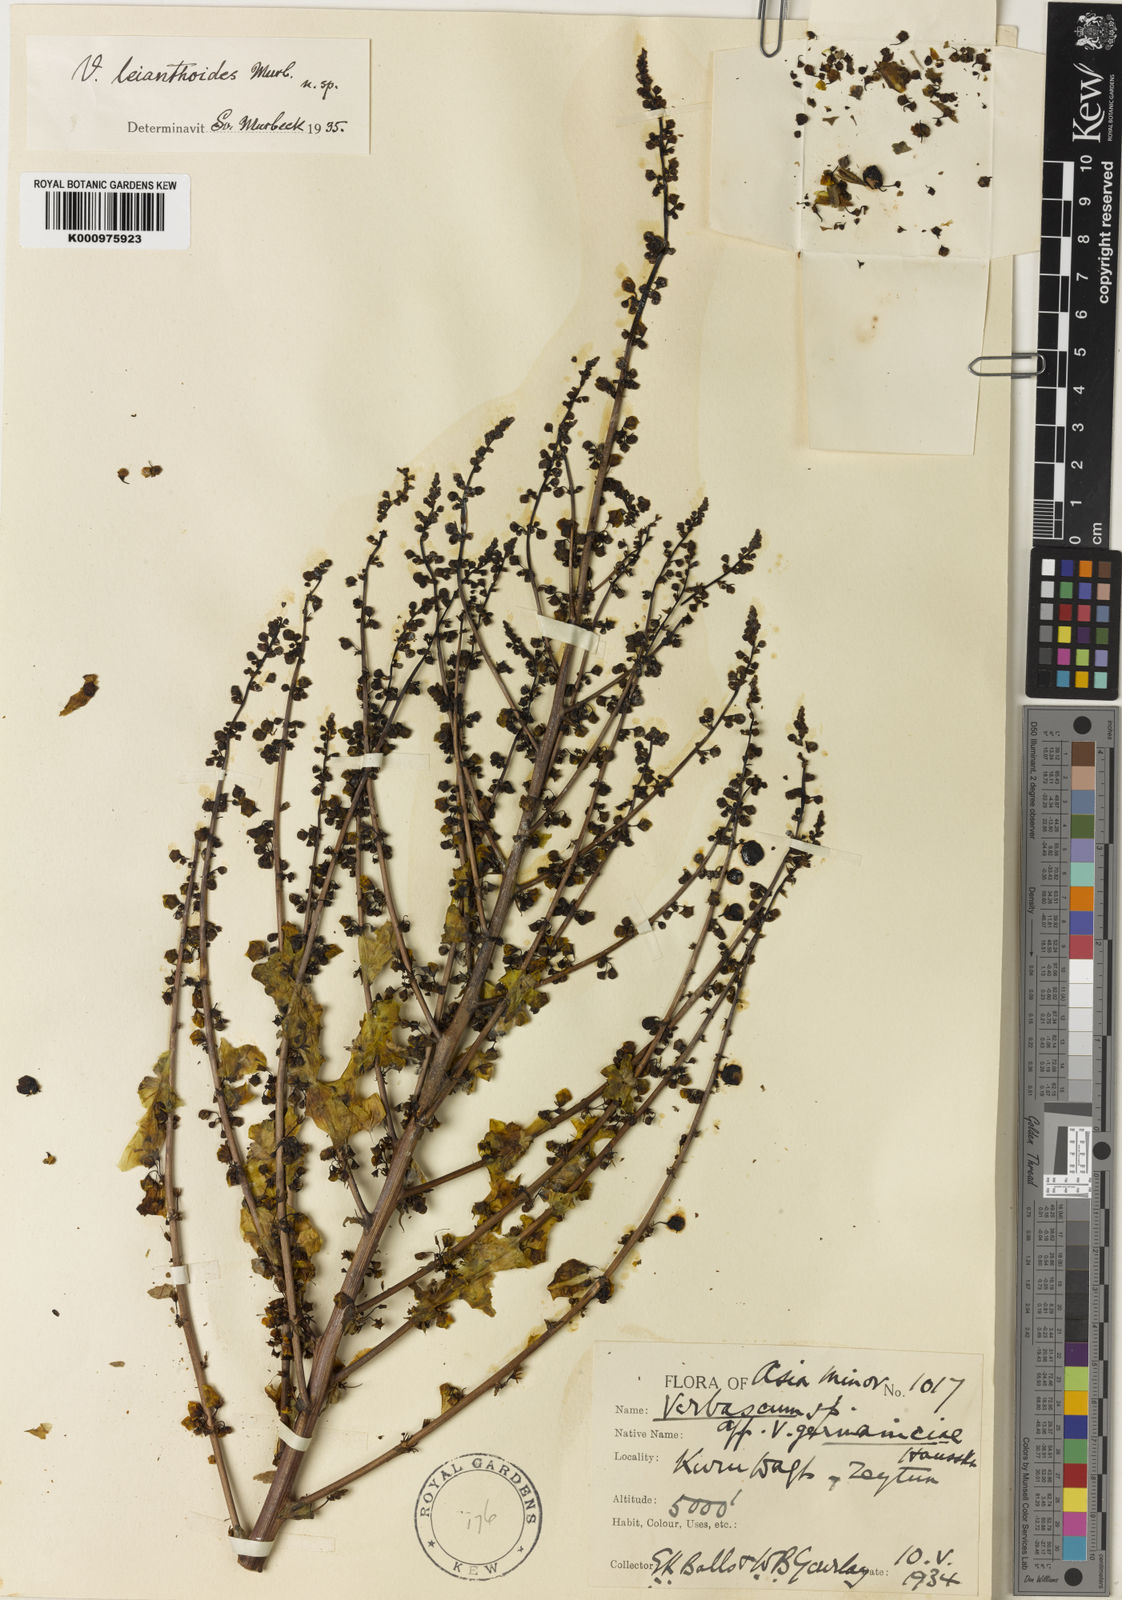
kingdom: Plantae
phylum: Tracheophyta
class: Magnoliopsida
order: Lamiales
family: Scrophulariaceae
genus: Verbascum
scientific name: Verbascum leianthoides
